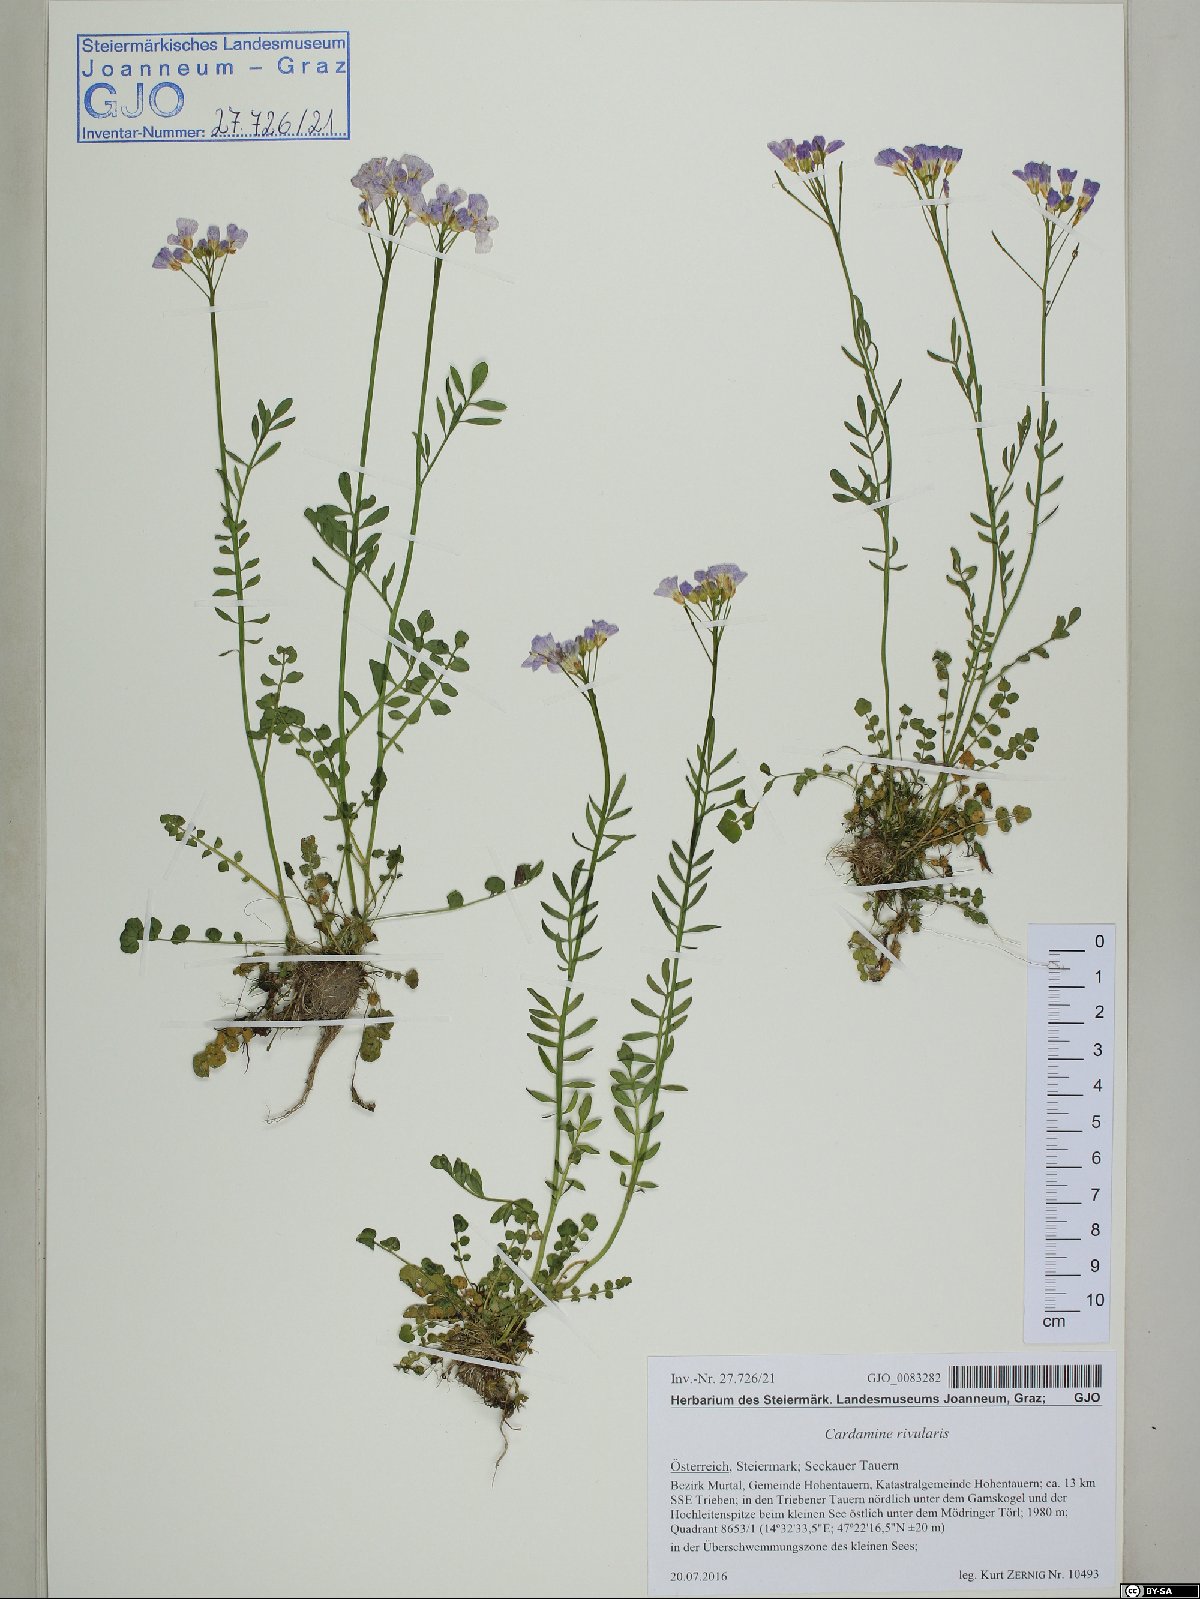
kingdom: Plantae
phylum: Tracheophyta
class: Magnoliopsida
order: Brassicales
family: Brassicaceae
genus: Cardamine
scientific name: Cardamine pratensis
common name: Cuckoo flower
